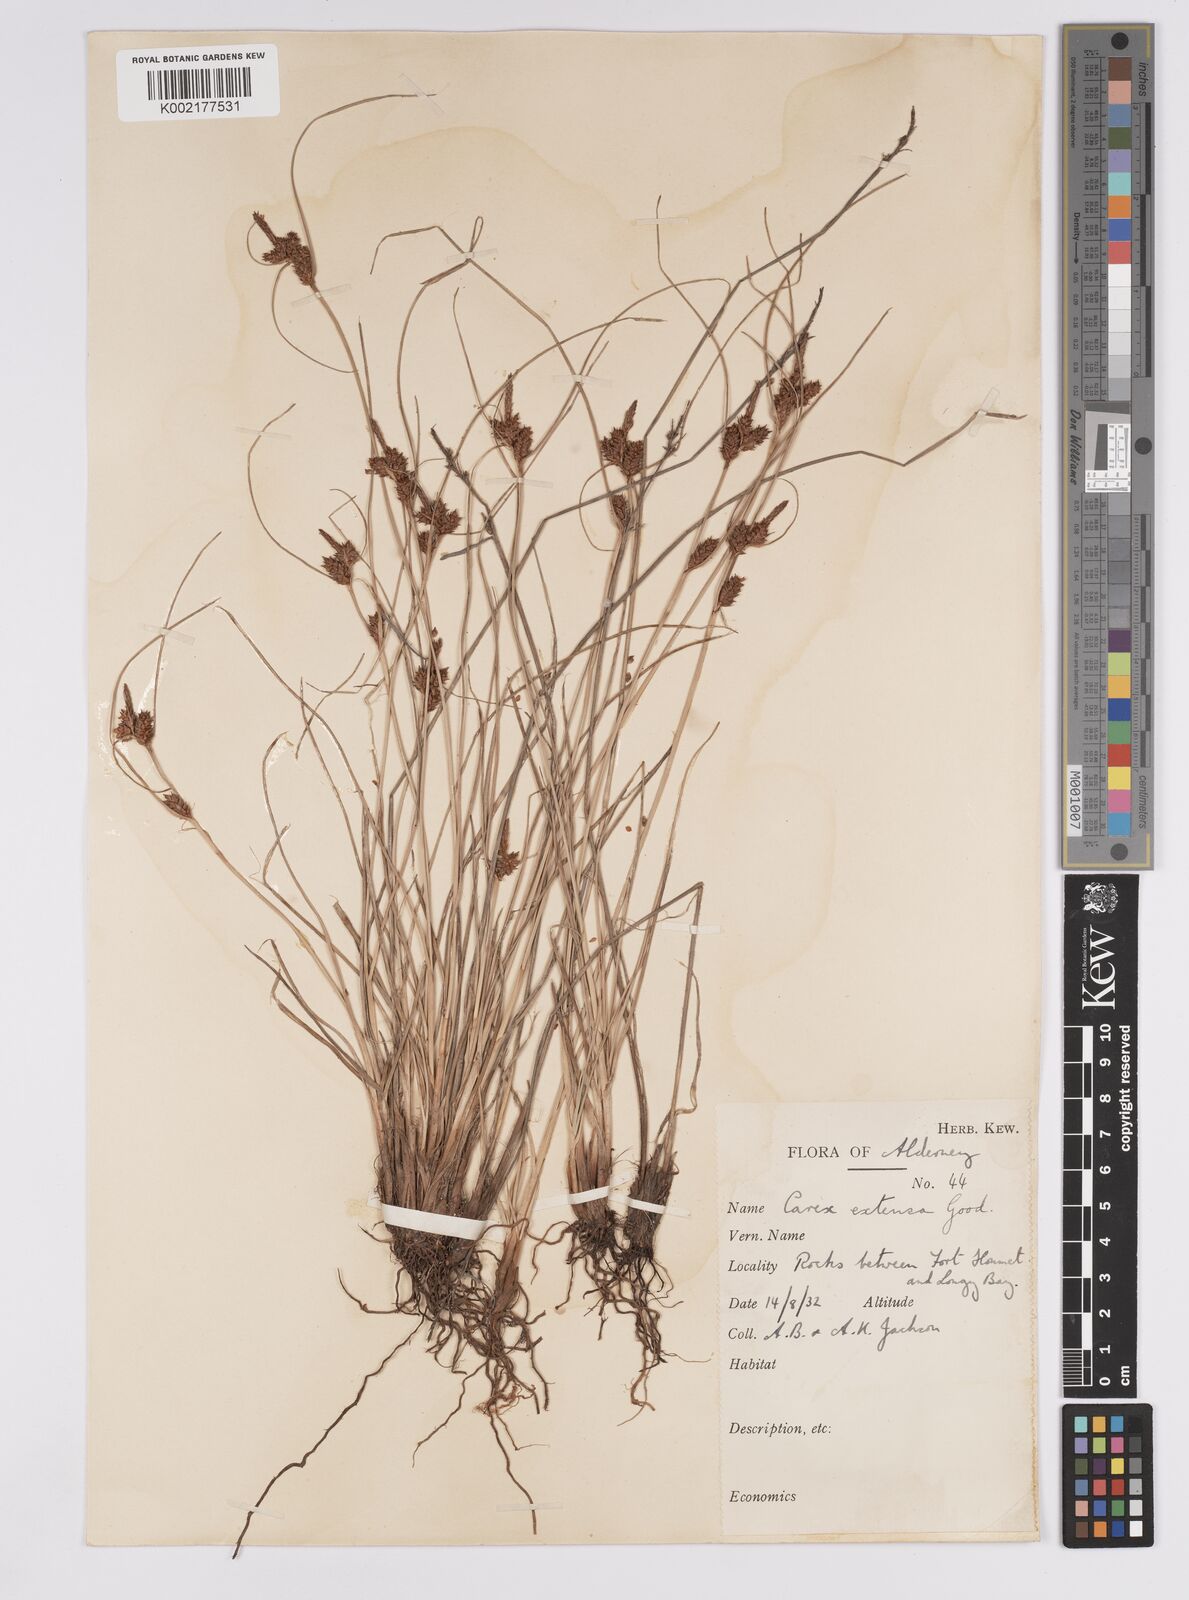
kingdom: Plantae
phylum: Tracheophyta
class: Liliopsida
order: Poales
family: Cyperaceae
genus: Carex
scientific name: Carex extensa
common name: Long-bracted sedge
